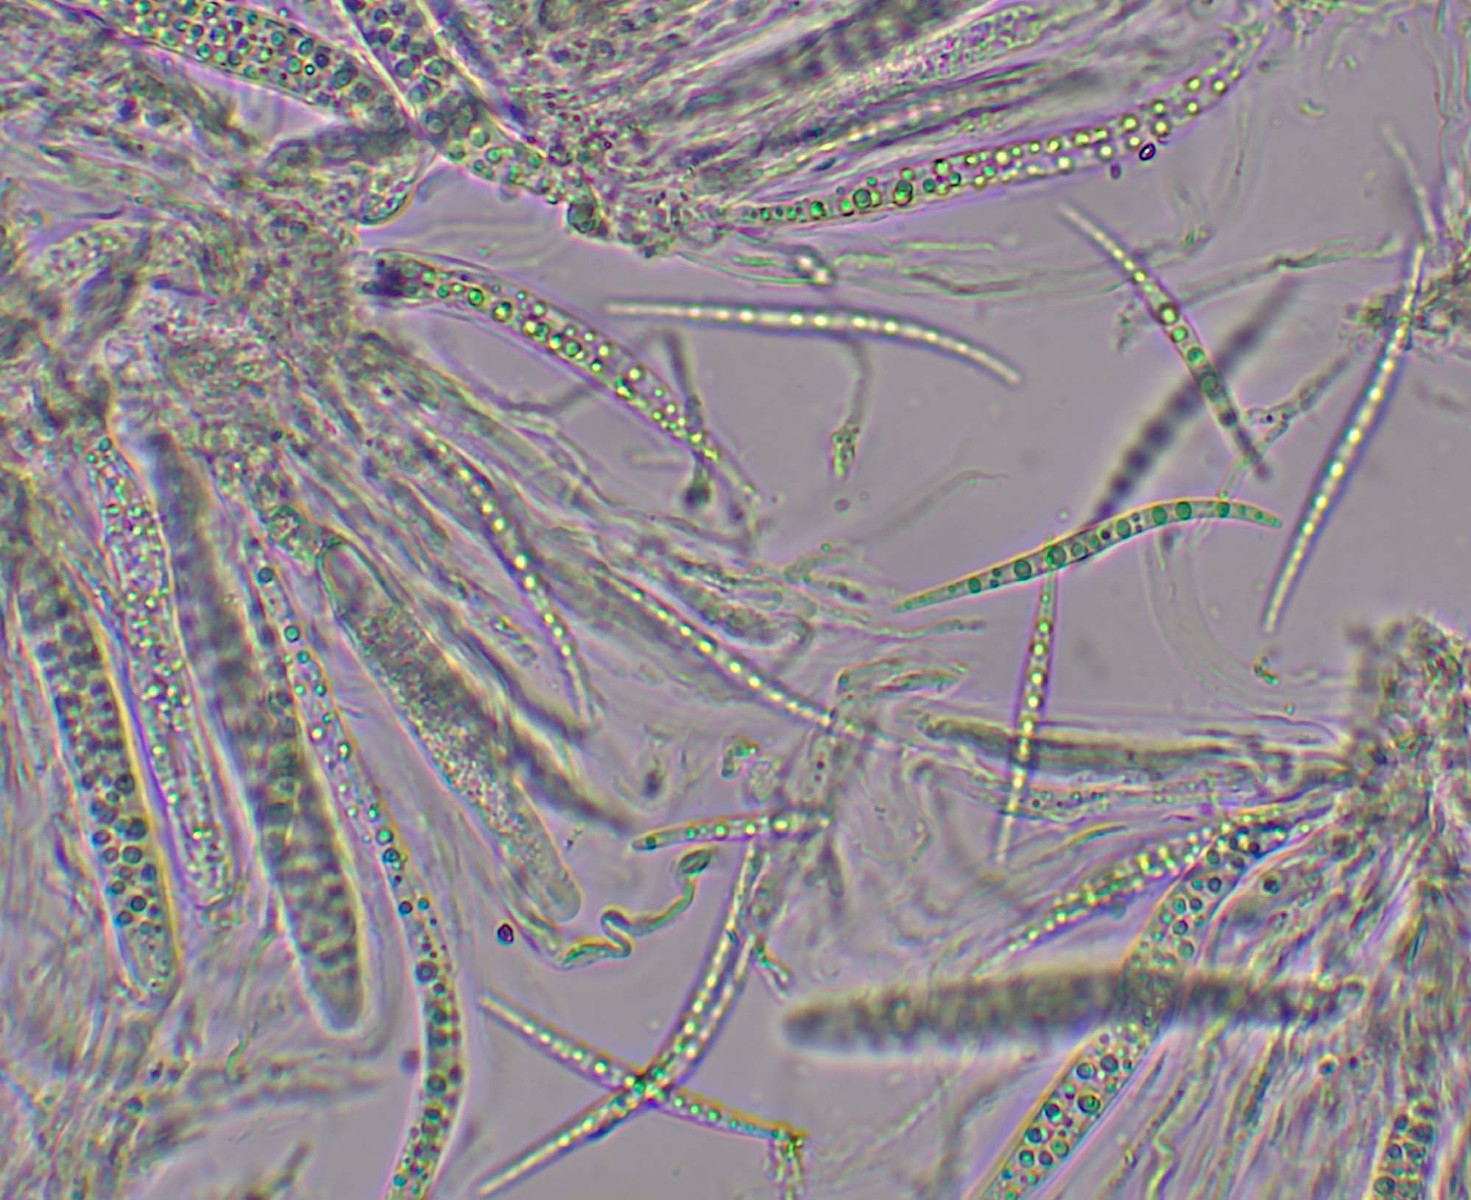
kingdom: Fungi
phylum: Ascomycota
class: Dothideomycetes
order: Tubeufiales
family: Tubeufiaceae
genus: Tubeufia
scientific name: Tubeufia cerea
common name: gulbrun tyksækkrukke
